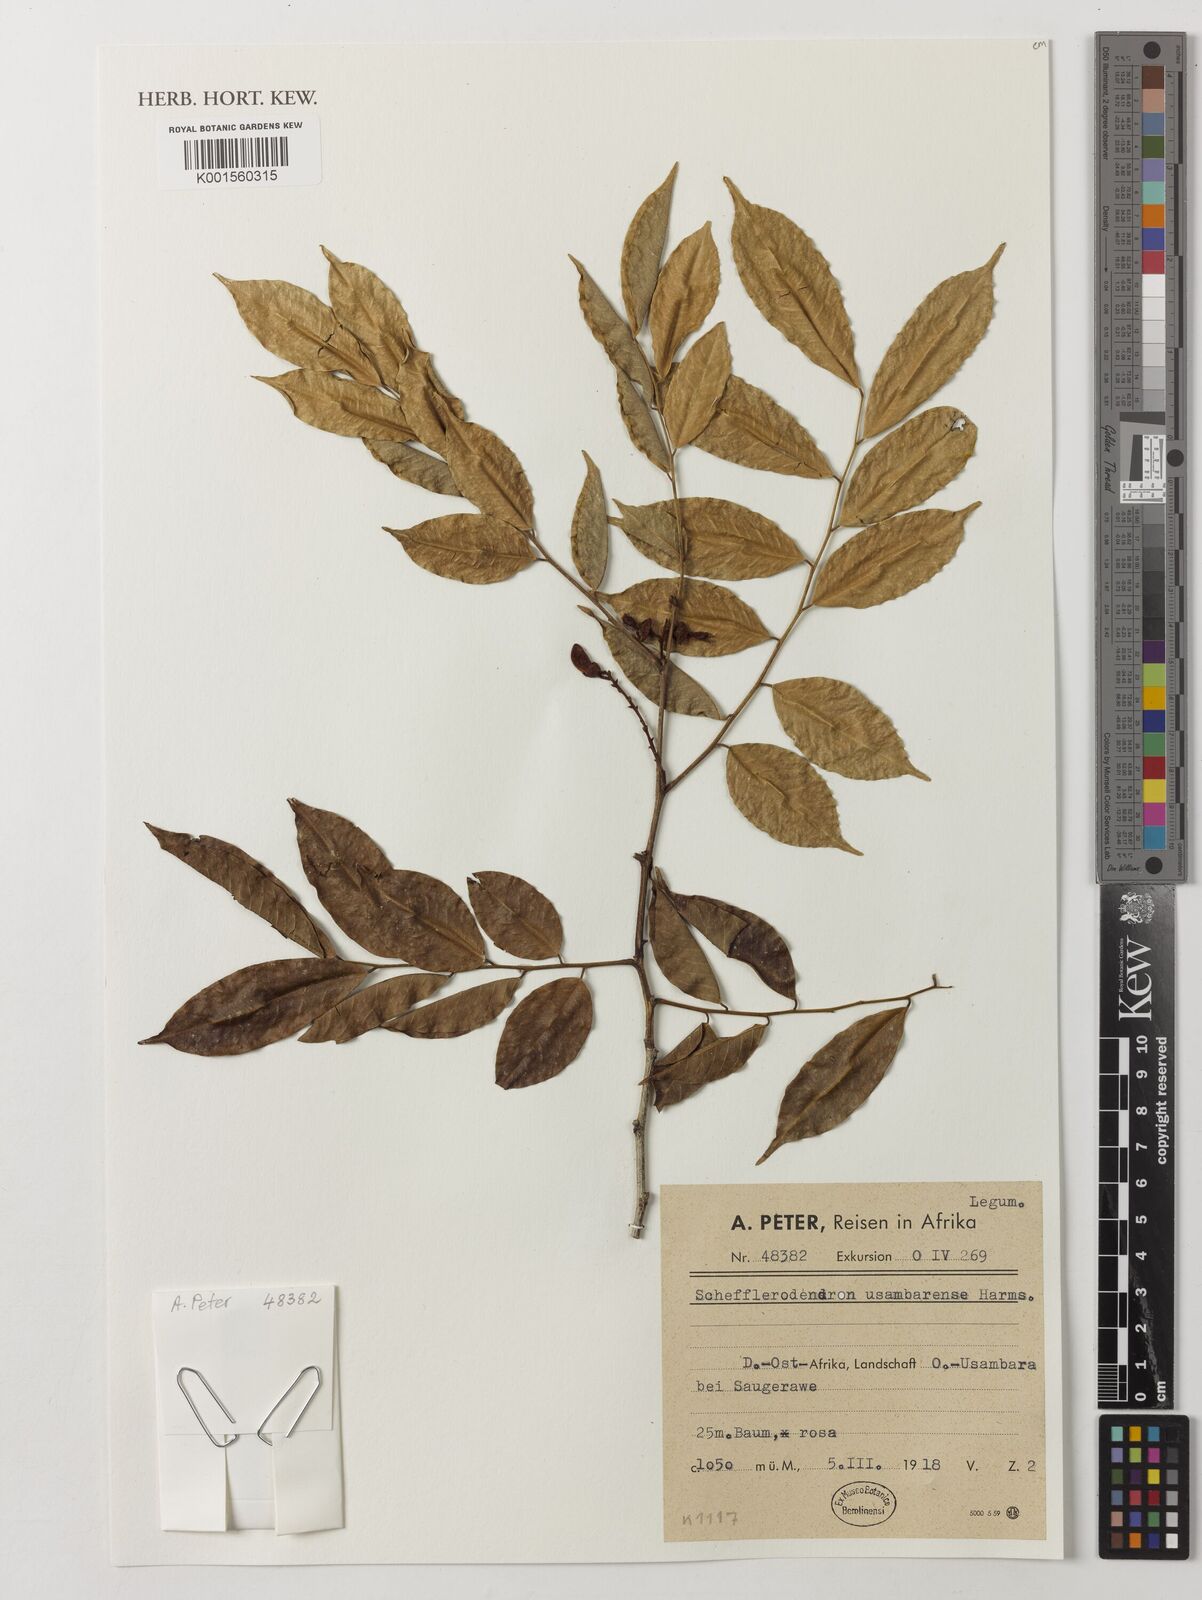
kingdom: Plantae
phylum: Tracheophyta
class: Magnoliopsida
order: Fabales
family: Fabaceae
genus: Schefflerodendron
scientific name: Schefflerodendron usambarense
